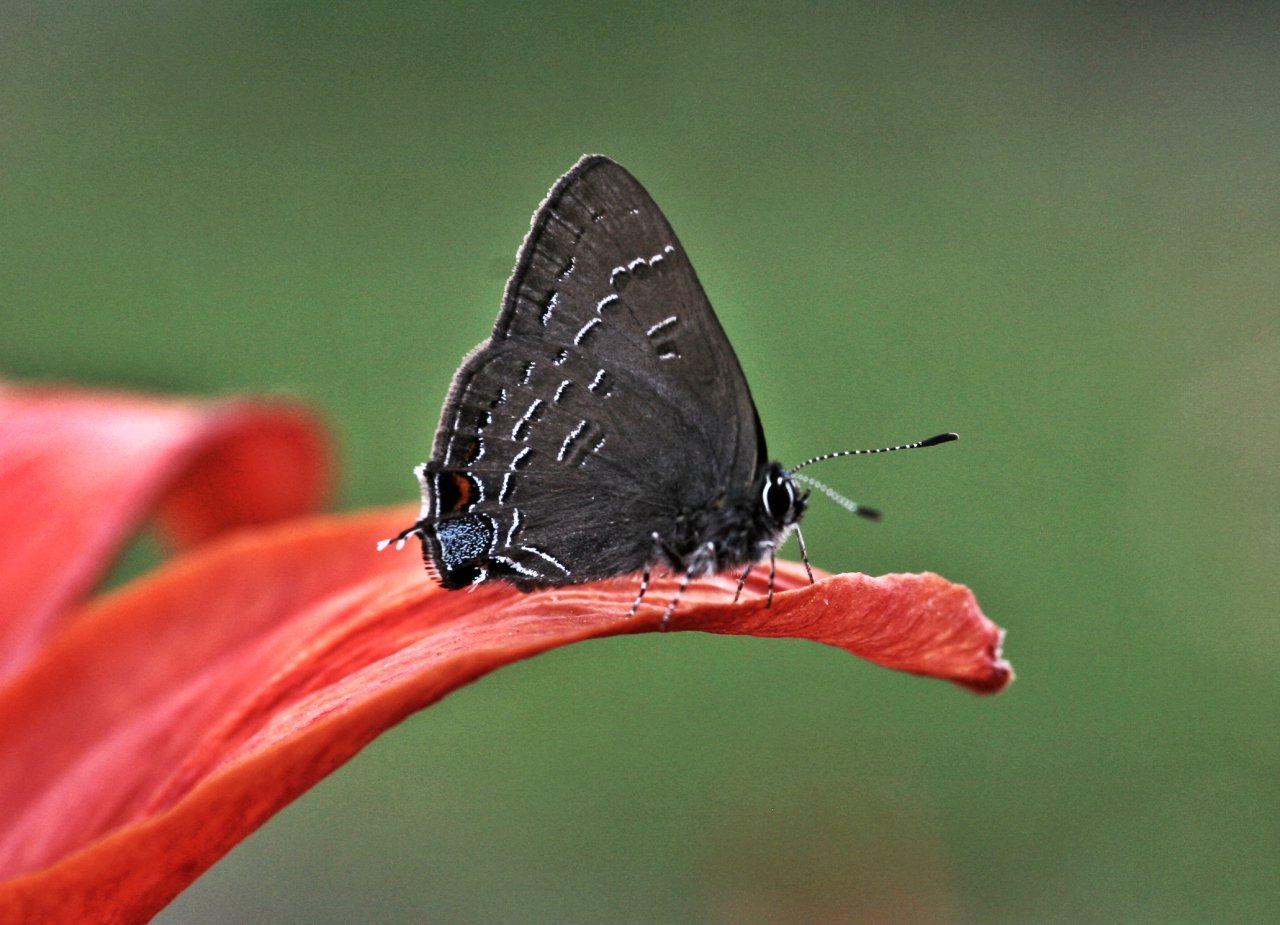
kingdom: Animalia
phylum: Arthropoda
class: Insecta
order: Lepidoptera
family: Lycaenidae
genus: Satyrium
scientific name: Satyrium calanus
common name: Banded Hairstreak
